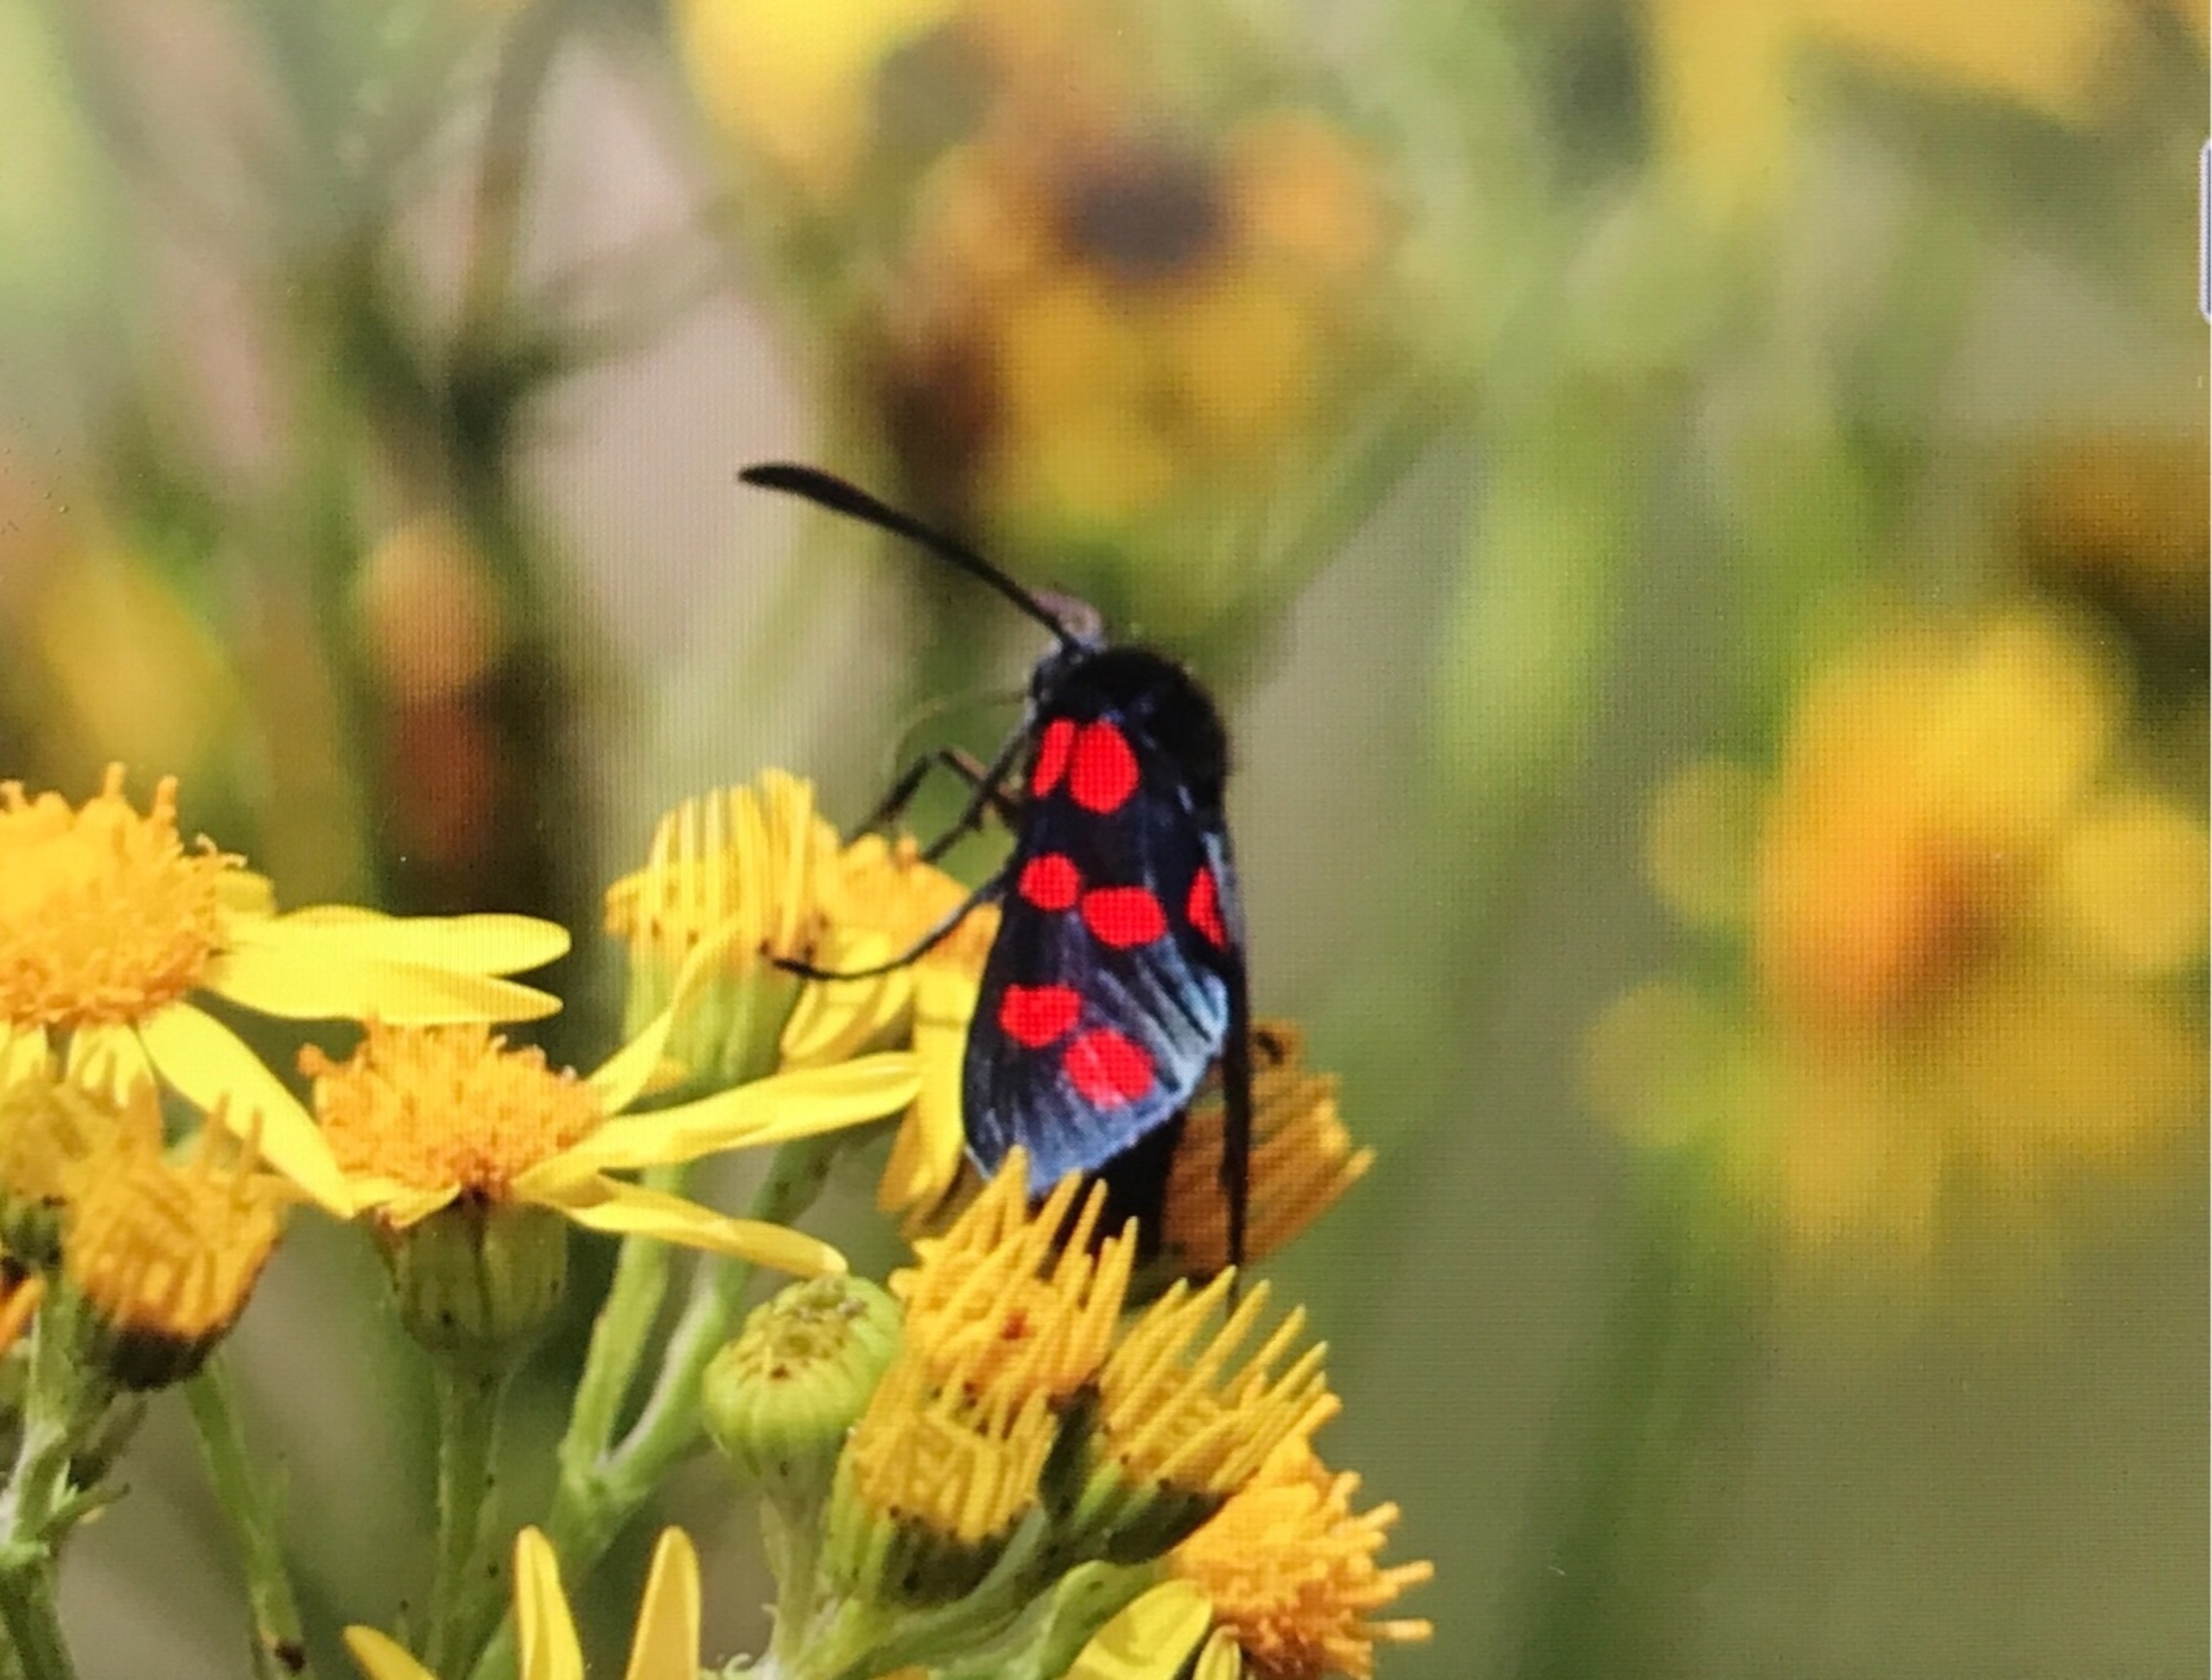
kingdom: Animalia
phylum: Arthropoda
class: Insecta
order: Lepidoptera
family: Zygaenidae
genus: Zygaena
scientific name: Zygaena filipendulae
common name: Seksplettet køllesværmer
